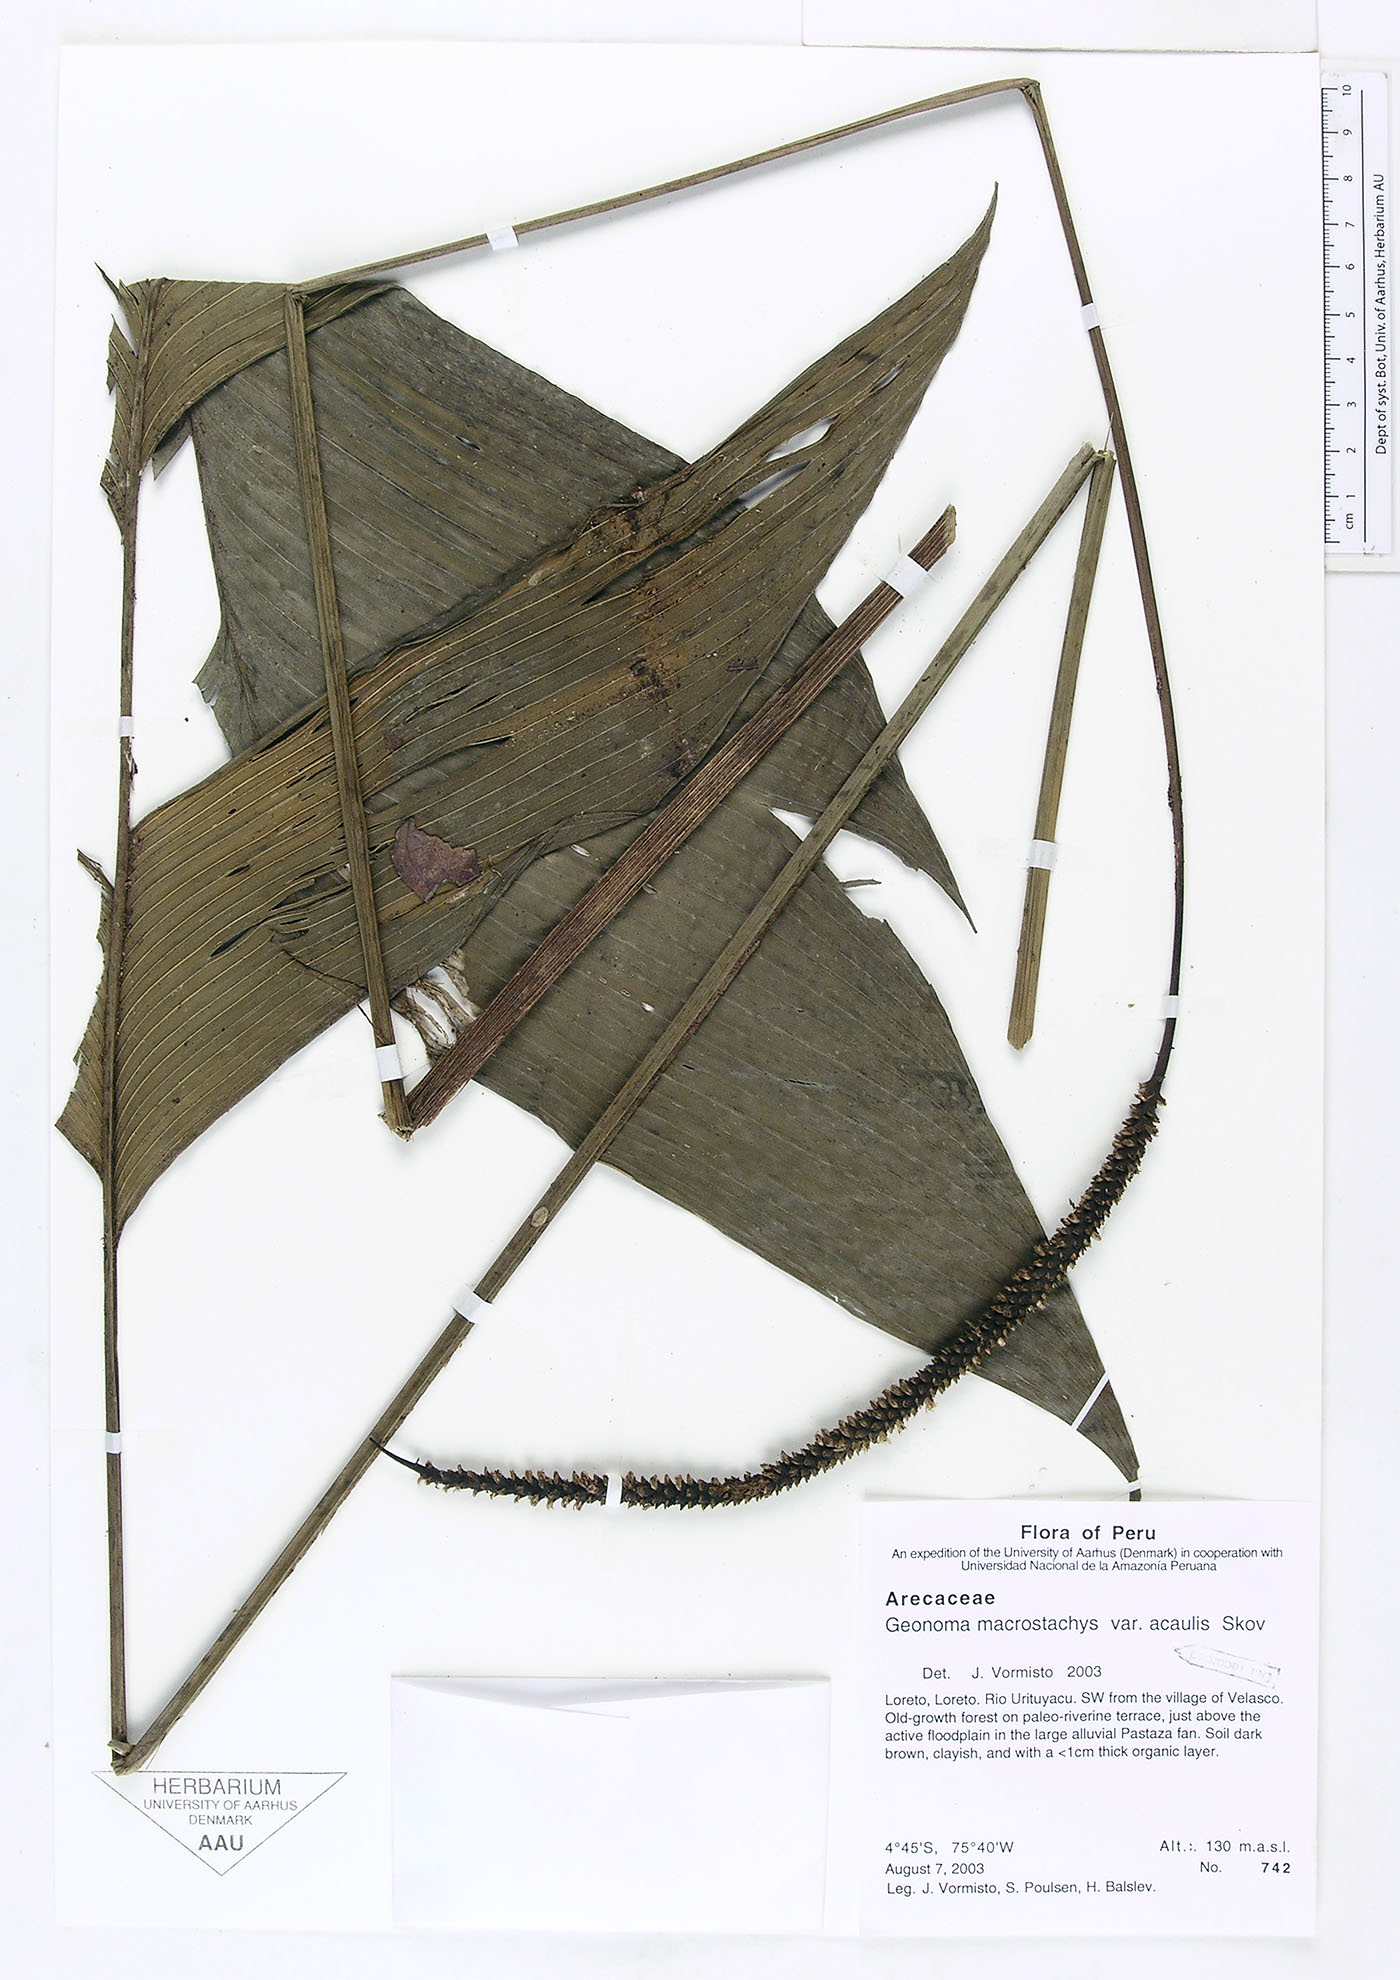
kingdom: Plantae
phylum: Tracheophyta
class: Liliopsida
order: Arecales
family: Arecaceae
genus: Geonoma
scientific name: Geonoma macrostachys
